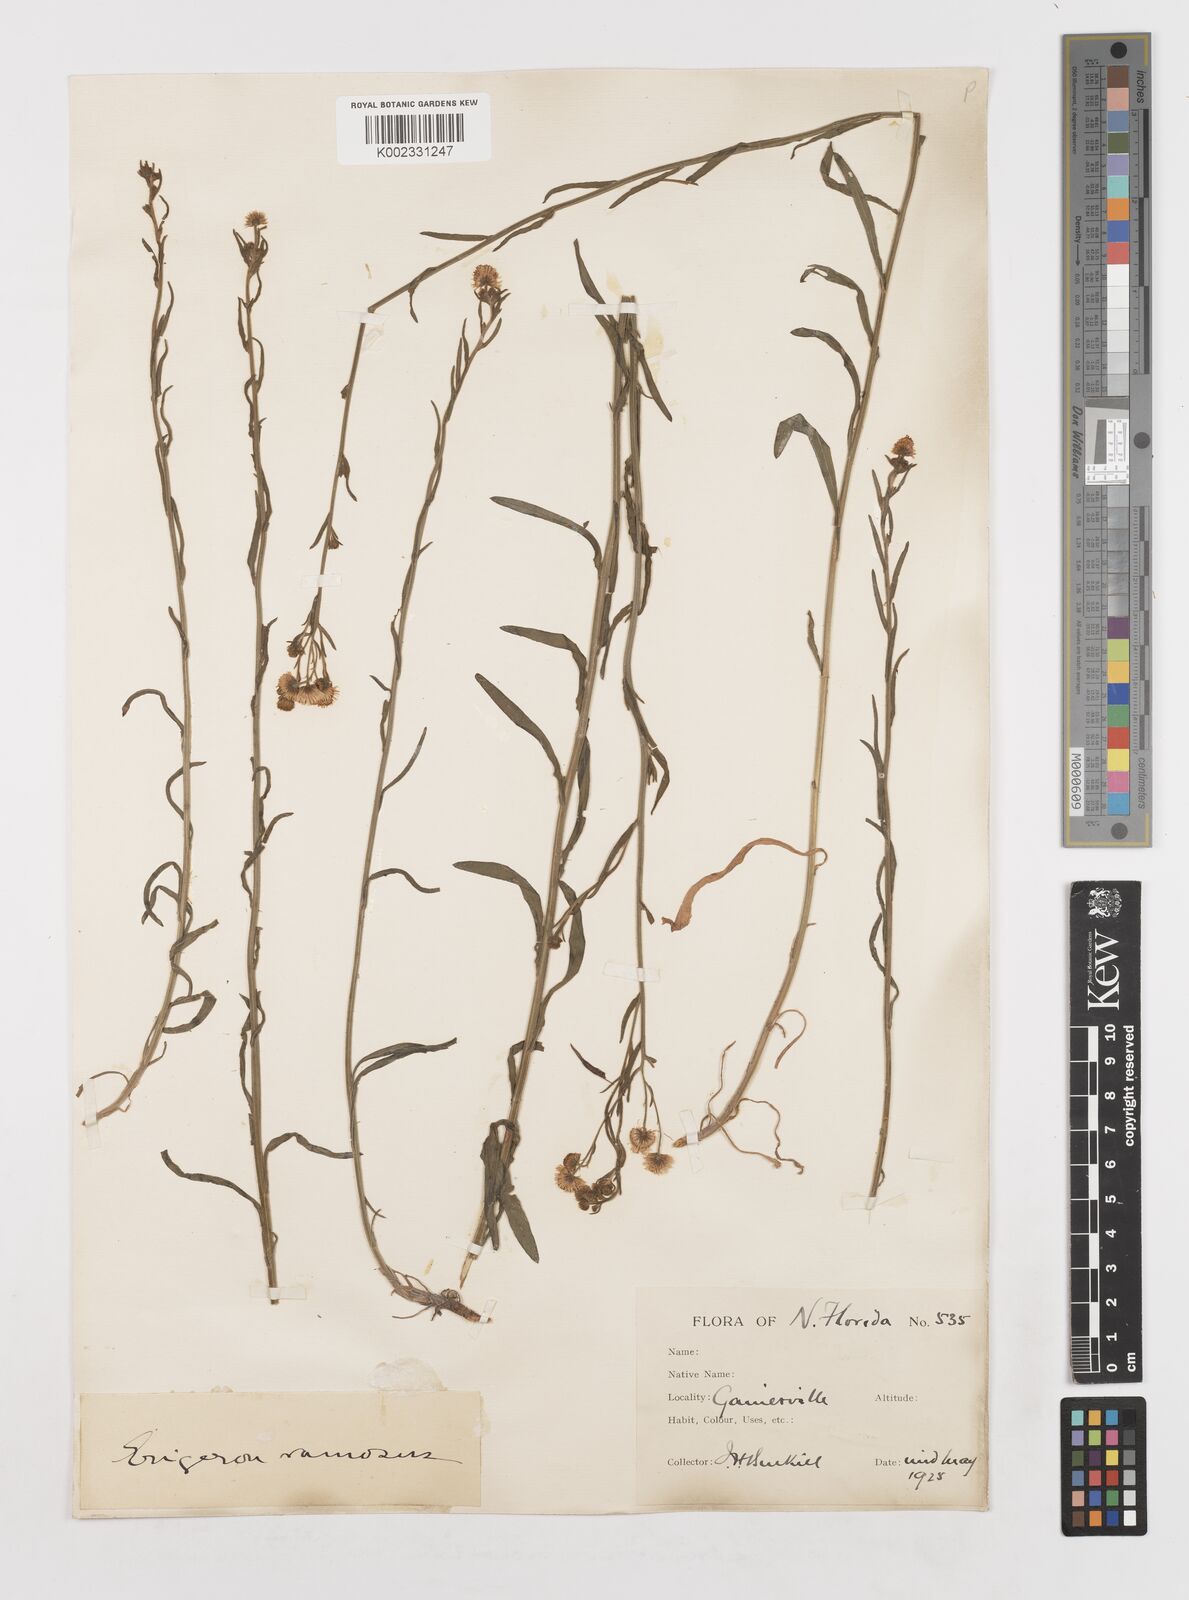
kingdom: Plantae
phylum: Tracheophyta
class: Magnoliopsida
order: Asterales
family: Asteraceae
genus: Erigeron
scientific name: Erigeron strigosus
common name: Common eastern fleabane
